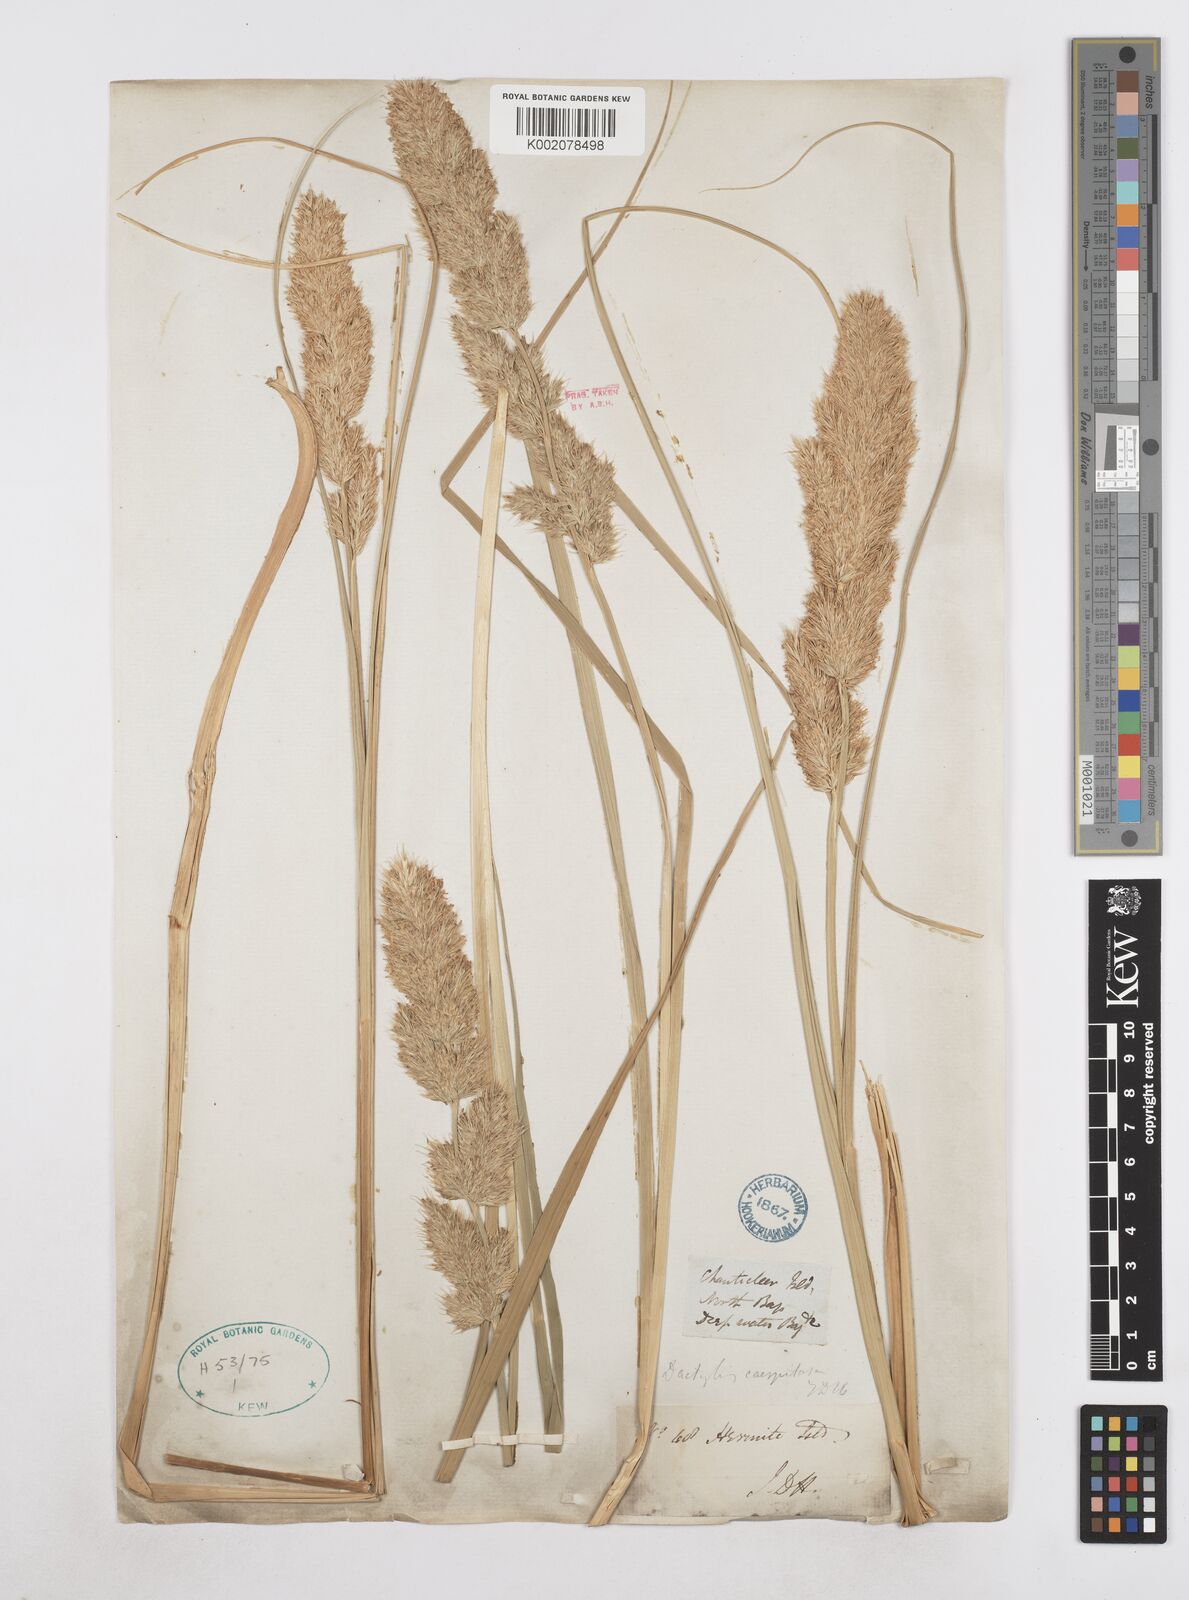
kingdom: Plantae
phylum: Tracheophyta
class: Liliopsida
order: Poales
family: Poaceae
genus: Poa
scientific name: Poa flabellata
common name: Tussac-grass
